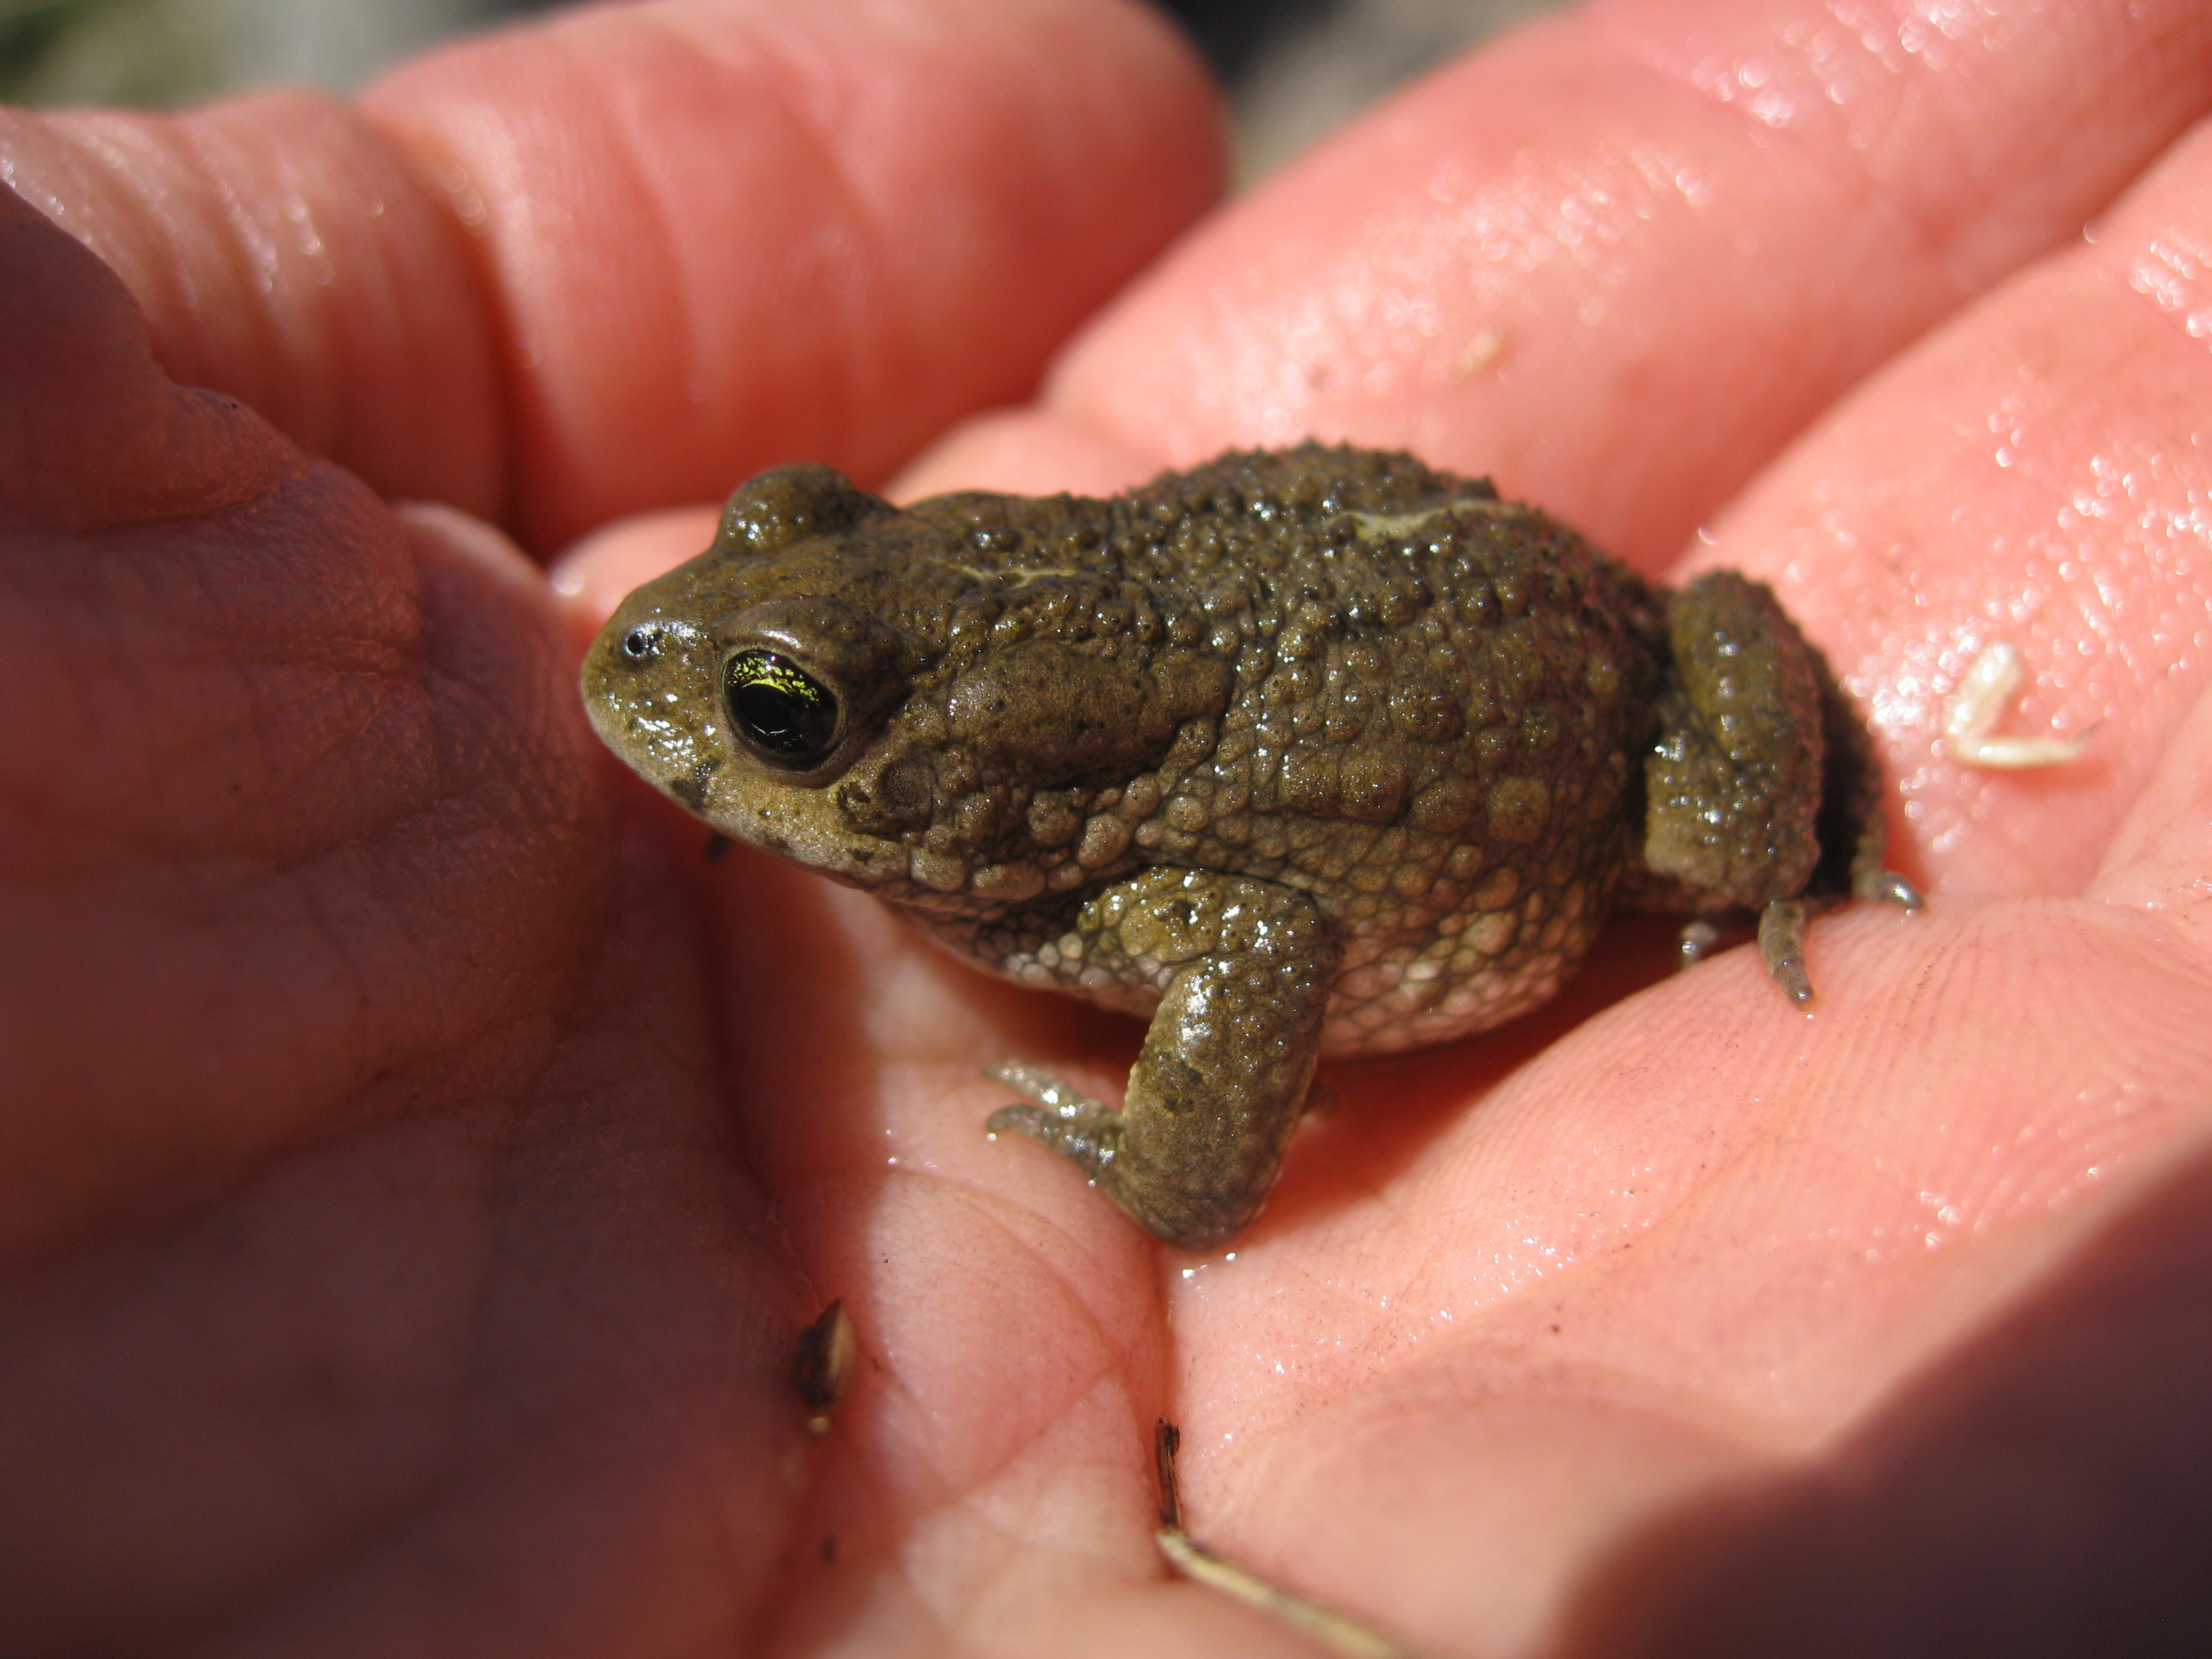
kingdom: Animalia
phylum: Chordata
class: Amphibia
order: Anura
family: Bufonidae
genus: Vandijkophrynus
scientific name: Vandijkophrynus amatolicus
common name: Amatola toad
